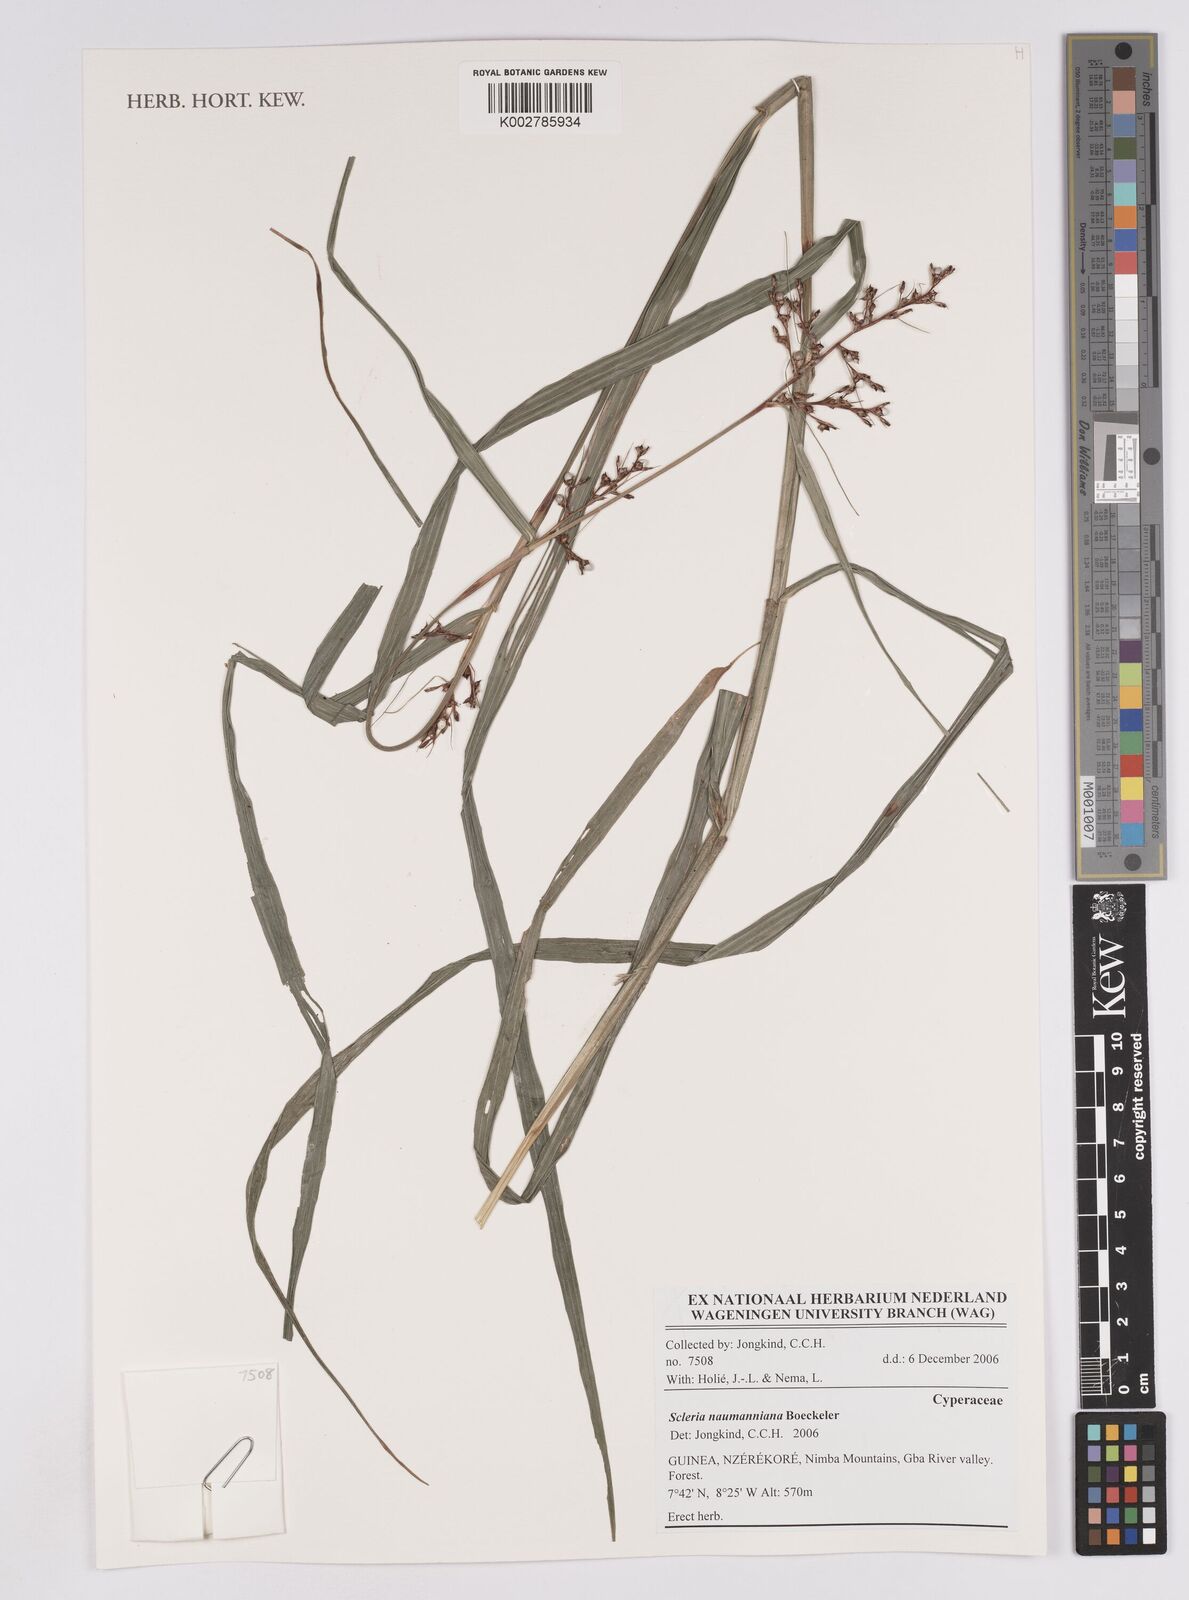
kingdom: Plantae
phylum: Tracheophyta
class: Liliopsida
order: Poales
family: Cyperaceae
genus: Scleria
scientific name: Scleria naumanniana
